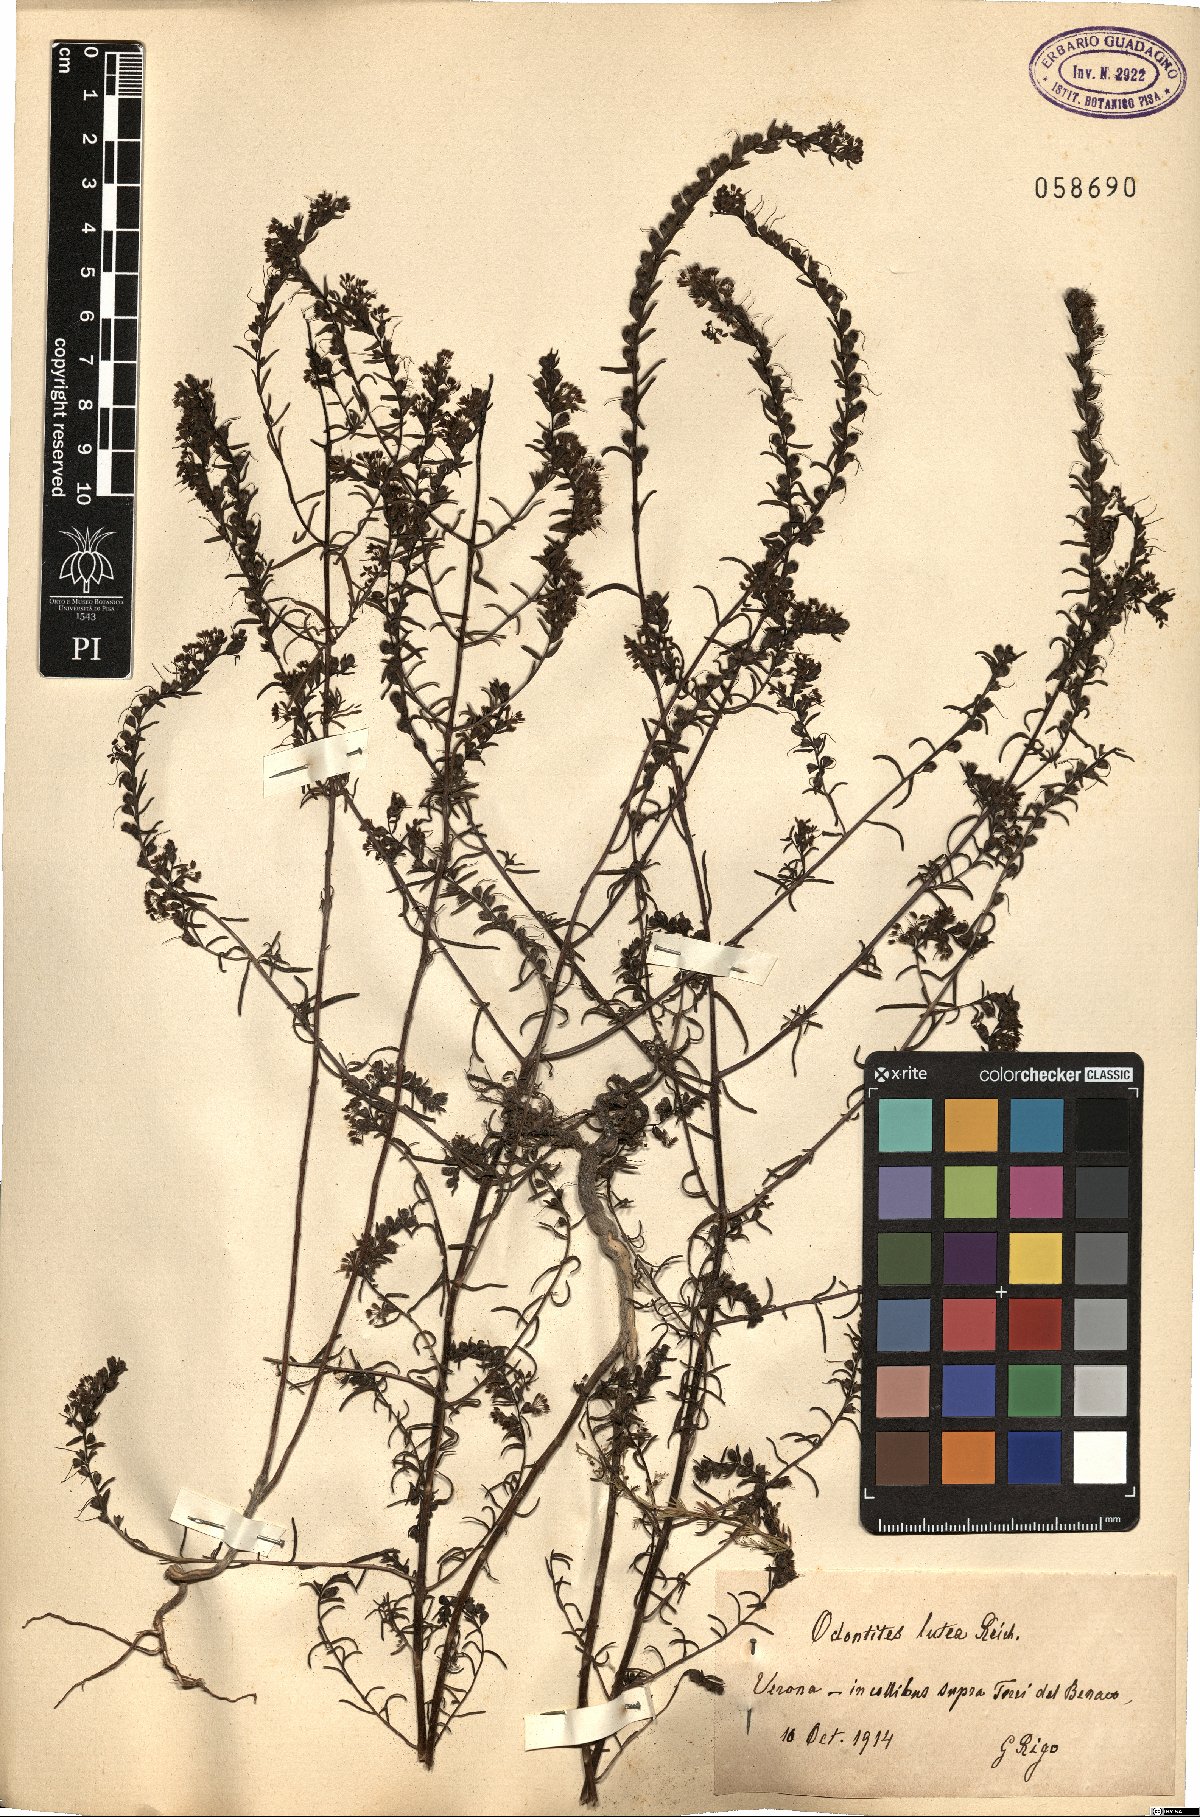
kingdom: Plantae
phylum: Tracheophyta
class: Magnoliopsida
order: Lamiales
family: Orobanchaceae
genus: Odontites
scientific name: Odontites luteus
